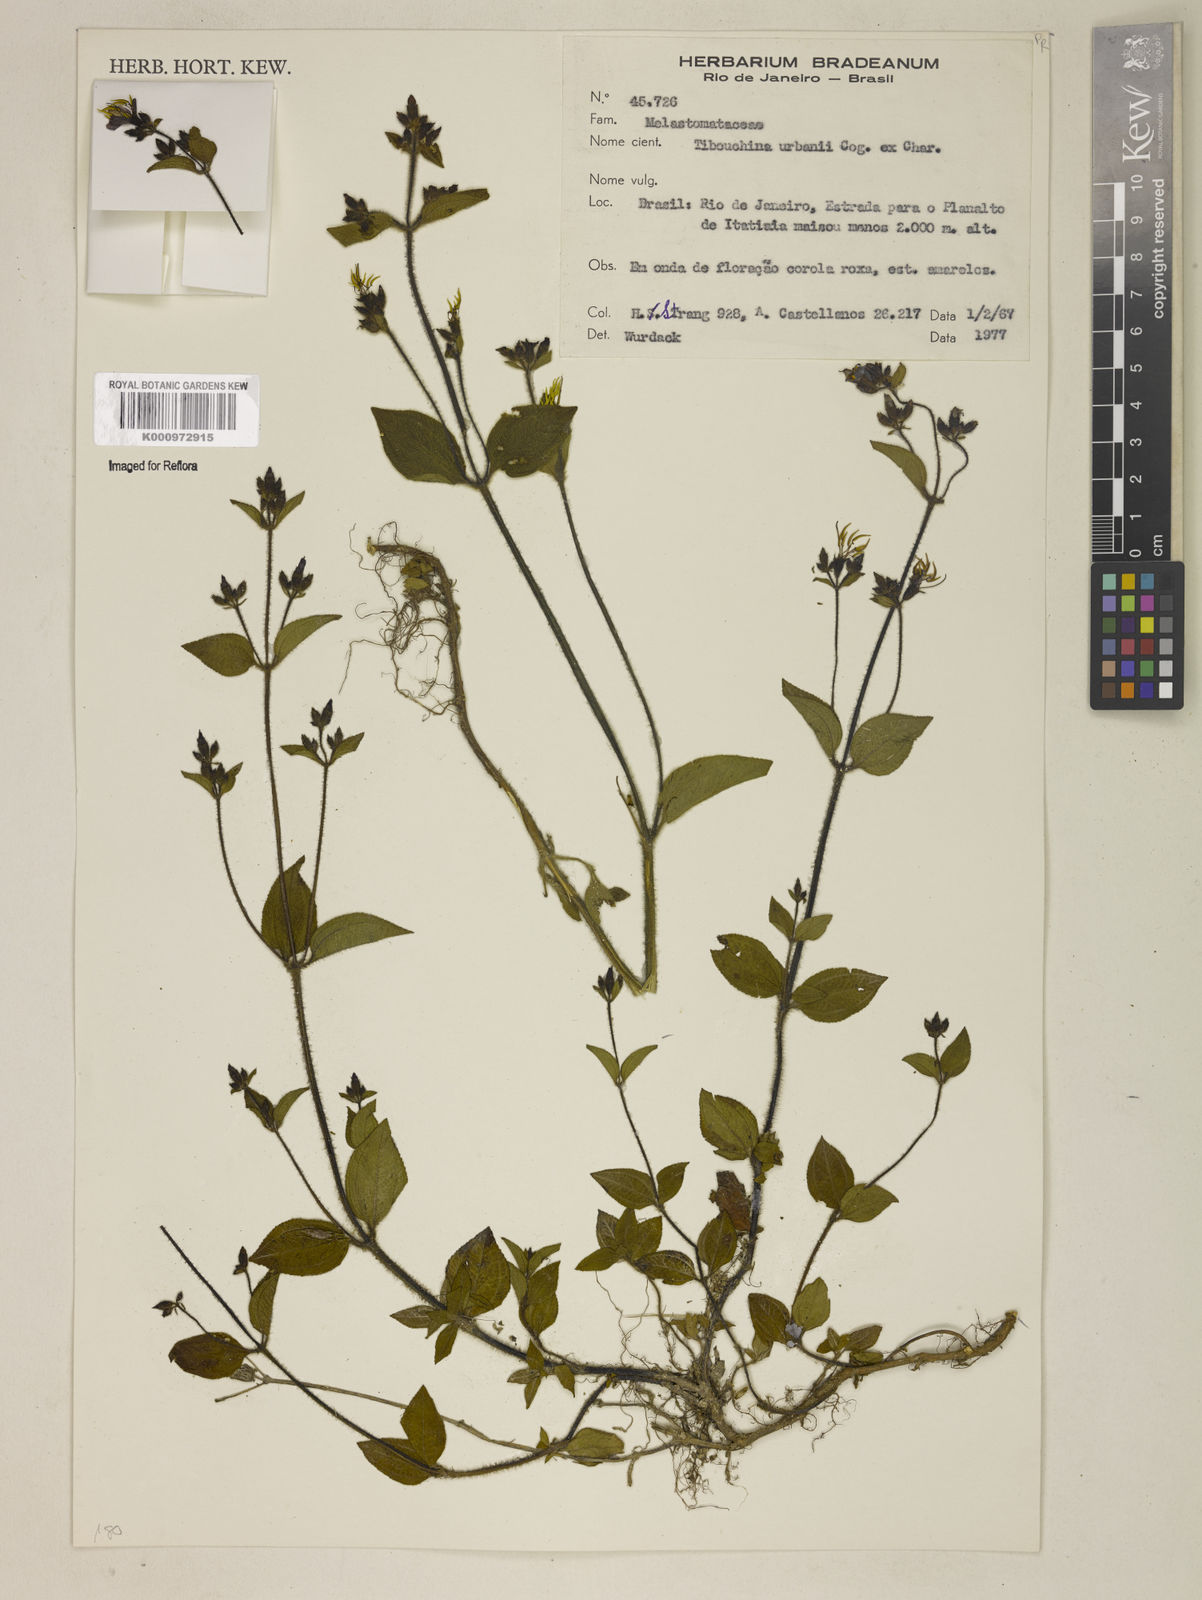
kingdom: Plantae
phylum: Tracheophyta
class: Magnoliopsida
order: Myrtales
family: Melastomataceae
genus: Chaetogastra
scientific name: Chaetogastra urbanii
